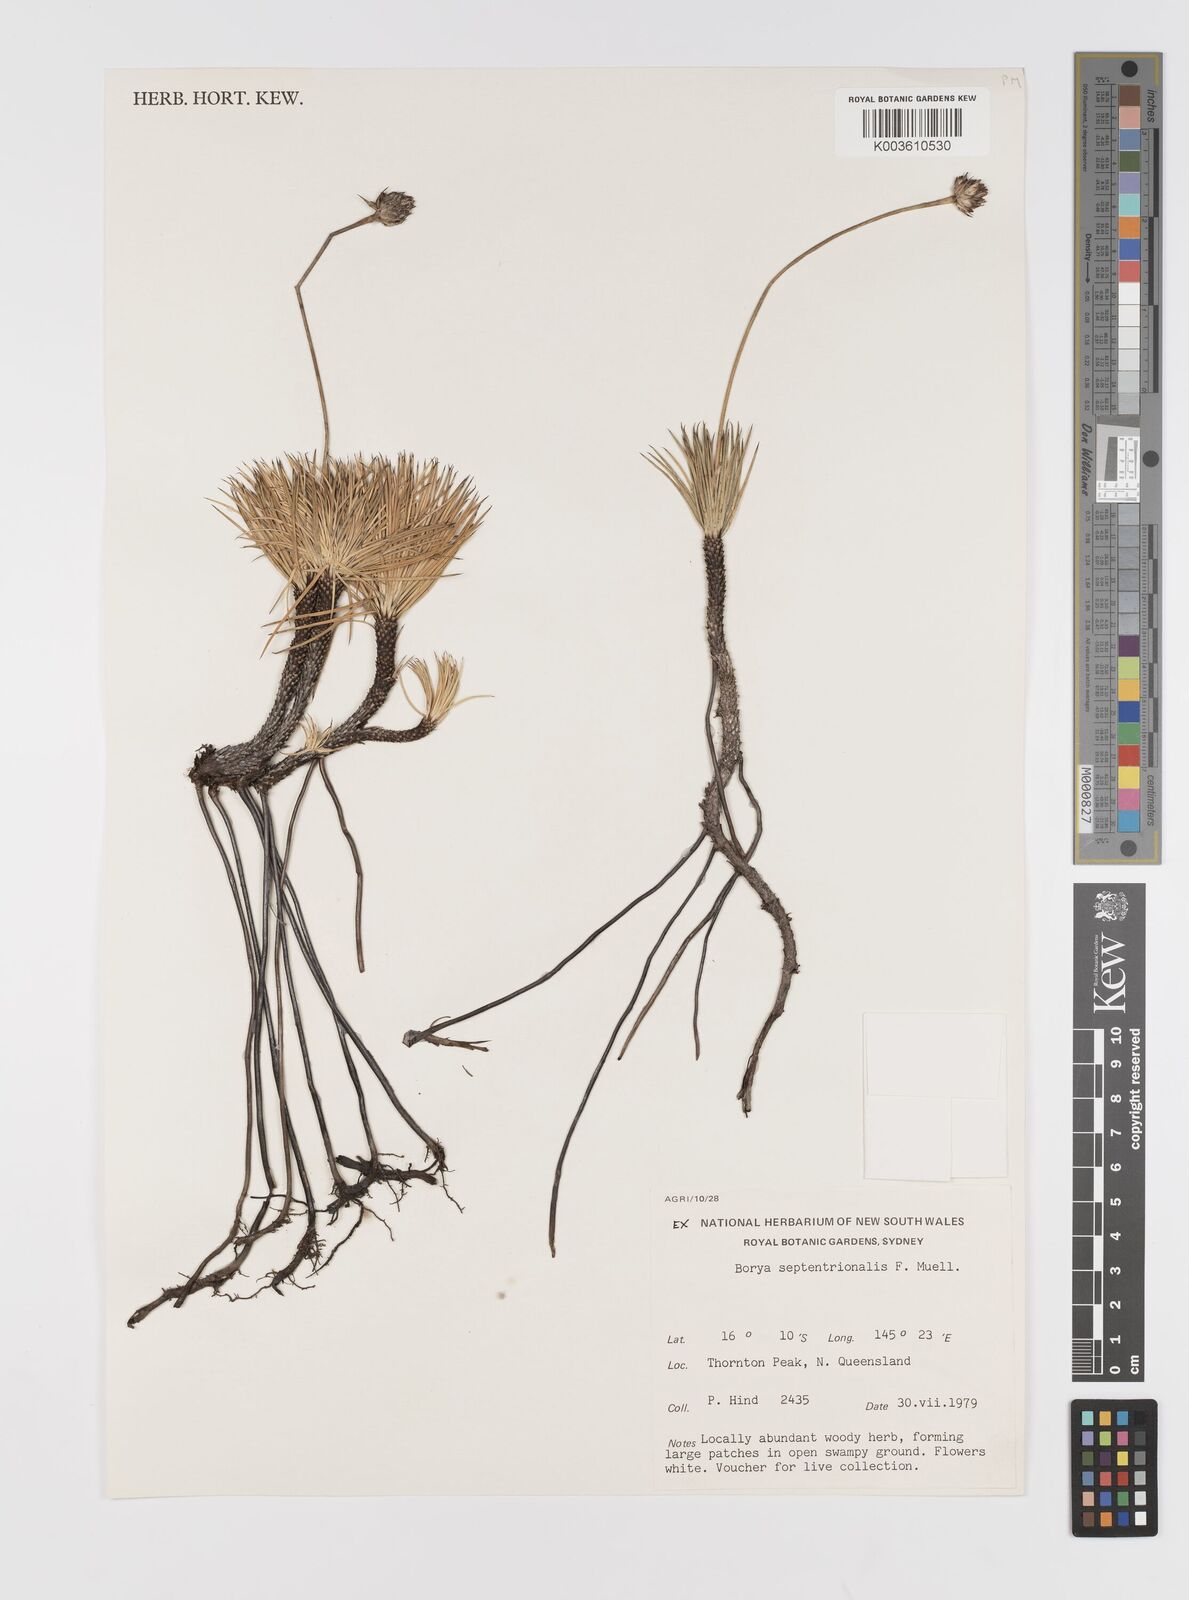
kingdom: Plantae
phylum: Tracheophyta
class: Liliopsida
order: Asparagales
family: Boryaceae
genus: Borya
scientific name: Borya septentrionalis
